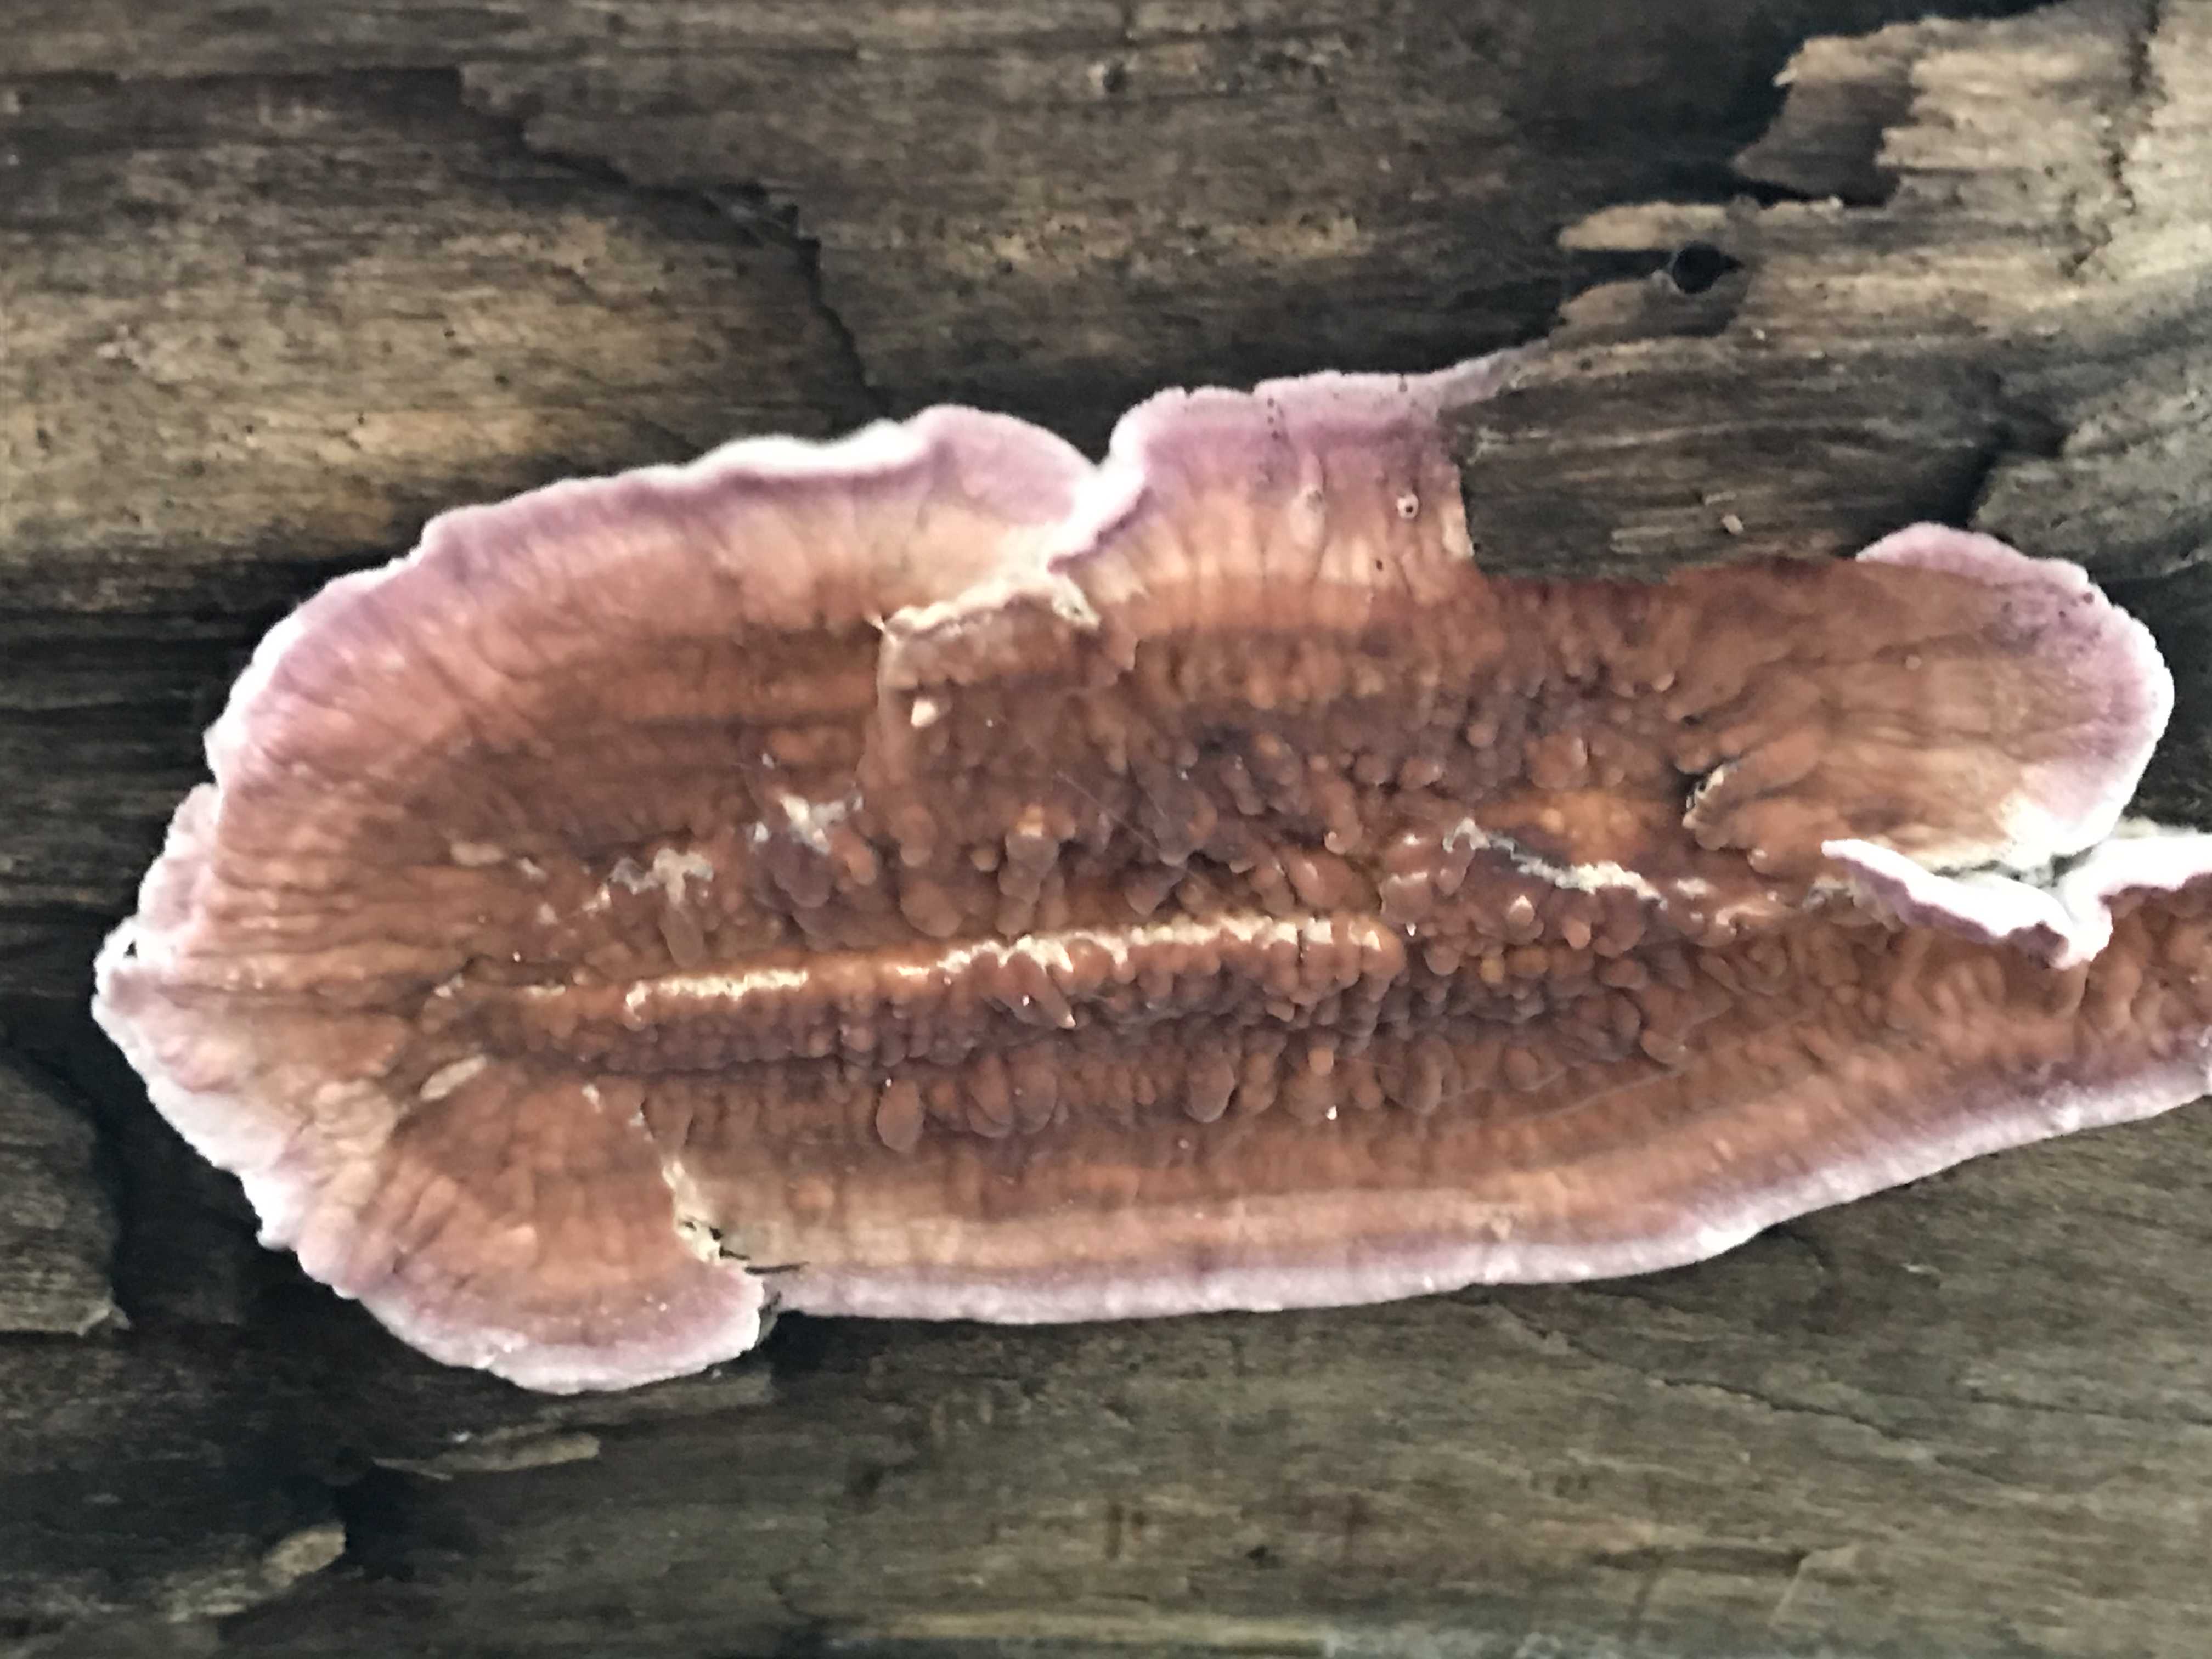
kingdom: Fungi
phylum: Basidiomycota
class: Agaricomycetes
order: Agaricales
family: Cyphellaceae
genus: Chondrostereum
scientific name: Chondrostereum purpureum
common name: purpurlædersvamp
